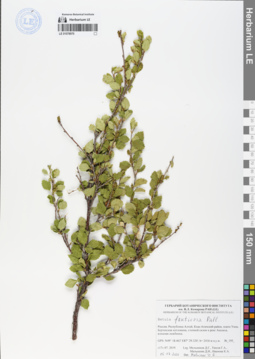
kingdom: Plantae
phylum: Tracheophyta
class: Magnoliopsida
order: Fagales
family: Betulaceae
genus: Betula
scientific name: Betula fruticosa
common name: Japanese bog birch
